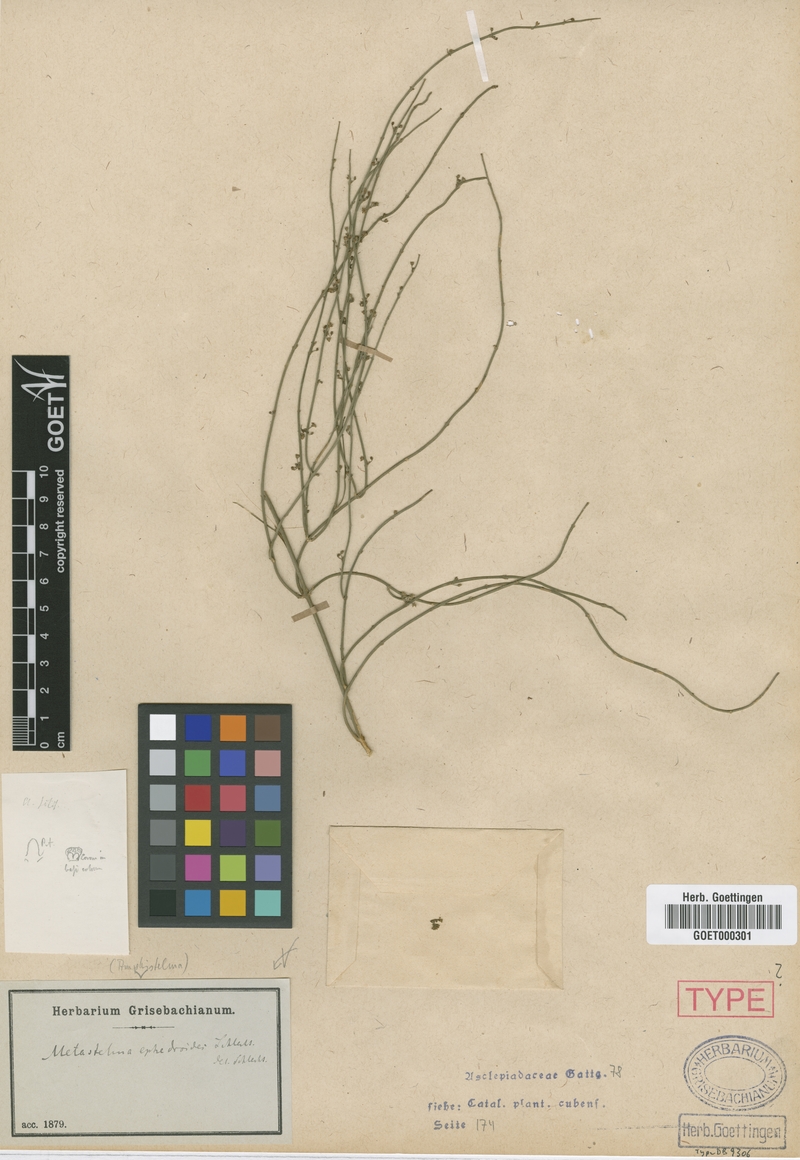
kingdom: Plantae
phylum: Tracheophyta
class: Magnoliopsida
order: Gentianales
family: Apocynaceae
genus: Orthosia
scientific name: Orthosia scoparia
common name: Leafless swallow-wort
